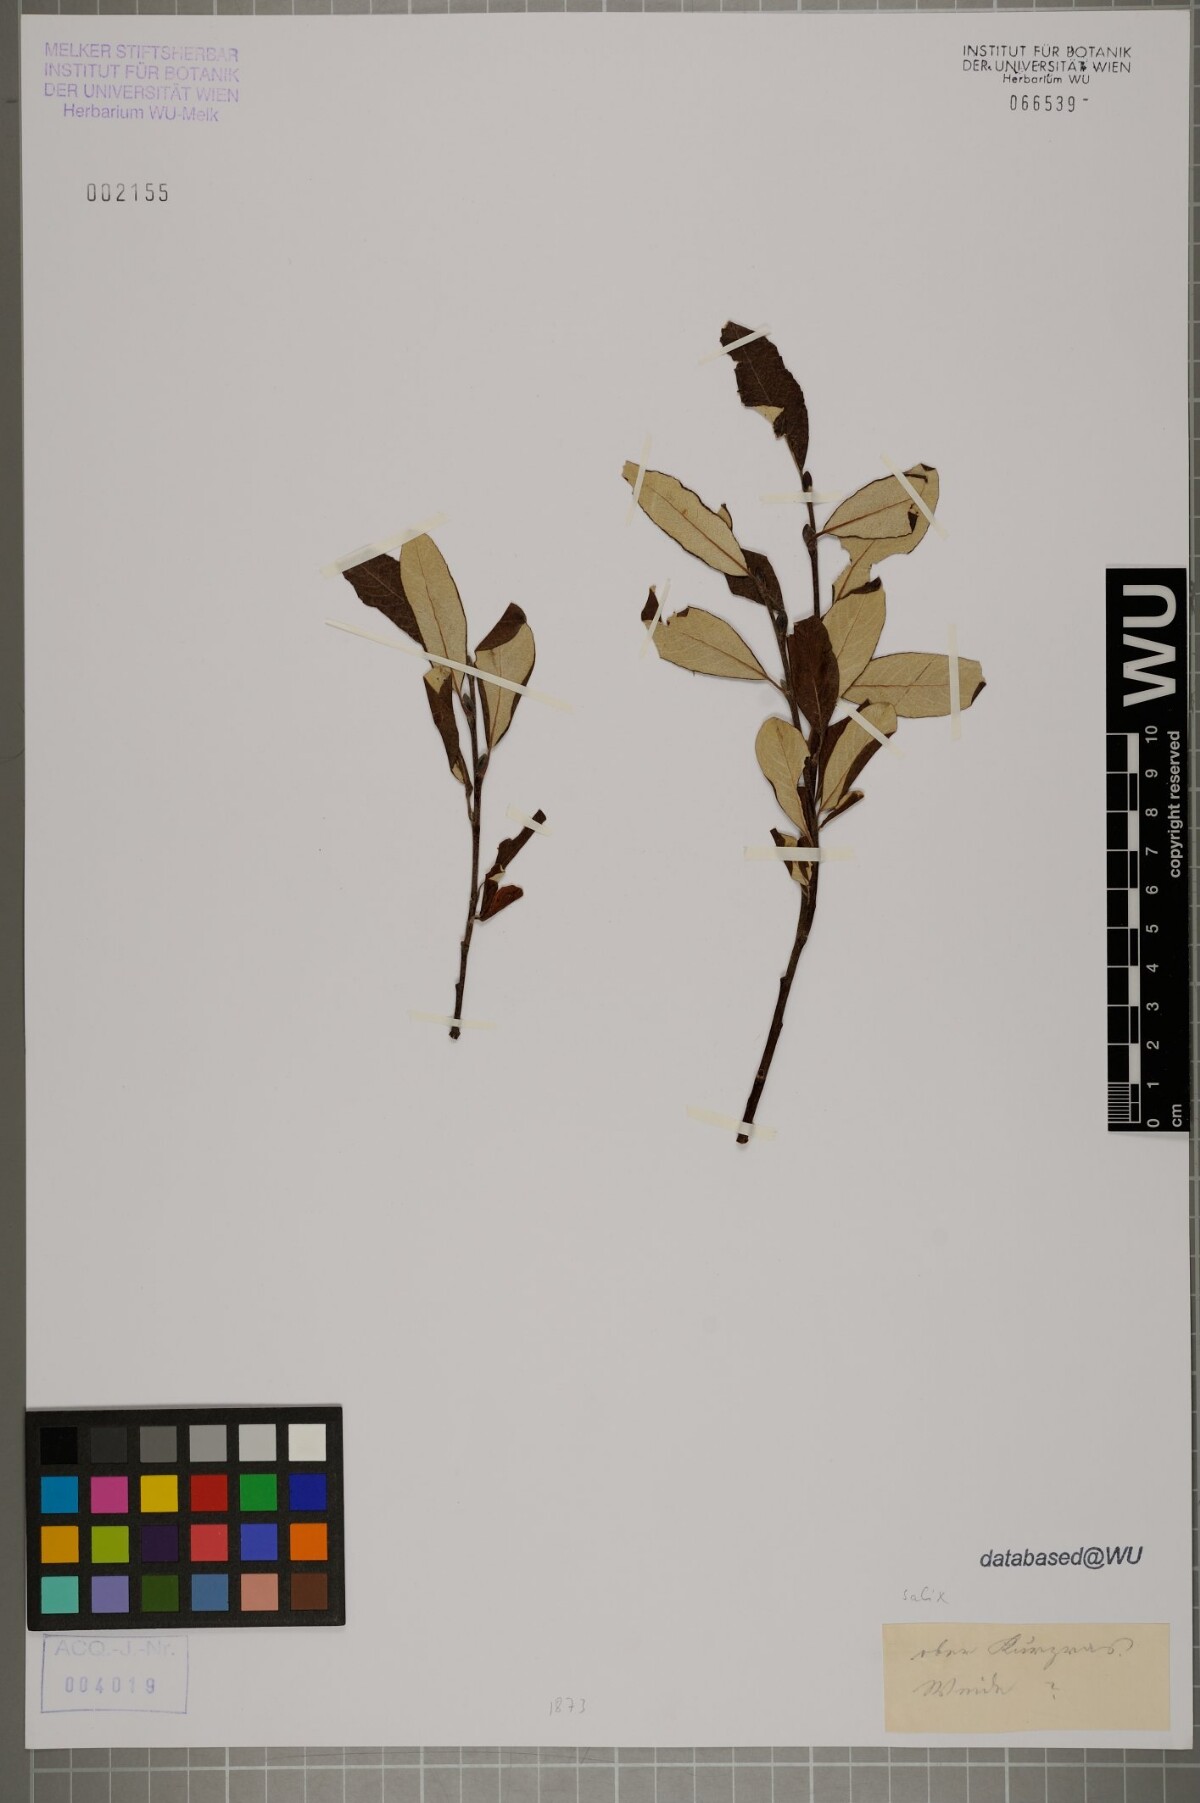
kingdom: Plantae
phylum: Tracheophyta
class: Magnoliopsida
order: Malpighiales
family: Salicaceae
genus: Salix
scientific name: Salix
